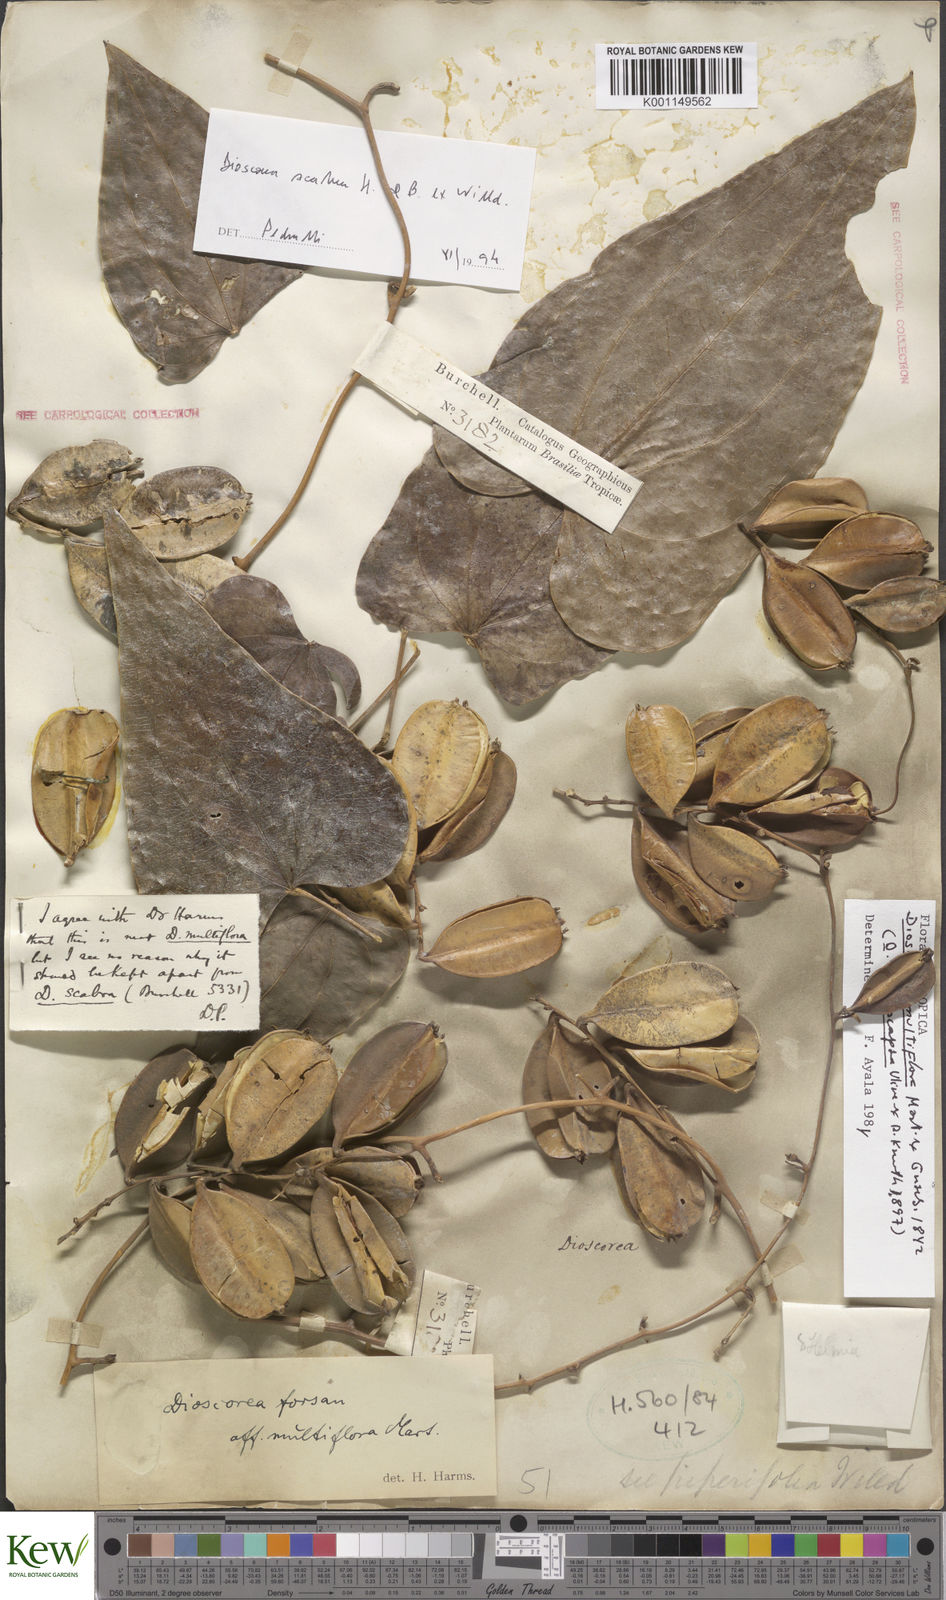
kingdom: Plantae
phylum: Tracheophyta
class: Liliopsida
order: Dioscoreales
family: Dioscoreaceae
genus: Dioscorea
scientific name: Dioscorea multiflora
